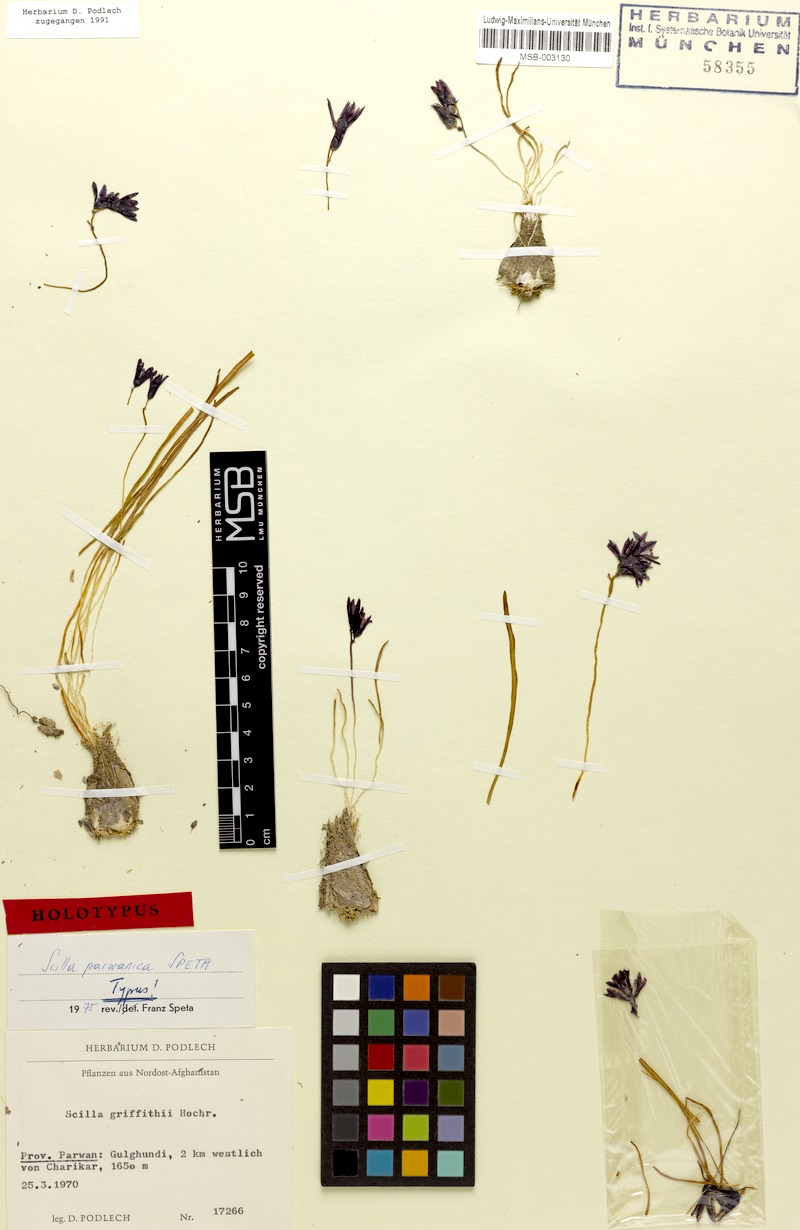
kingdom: Plantae
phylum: Tracheophyta
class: Liliopsida
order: Asparagales
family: Asparagaceae
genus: Fessia
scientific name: Fessia parwanica
